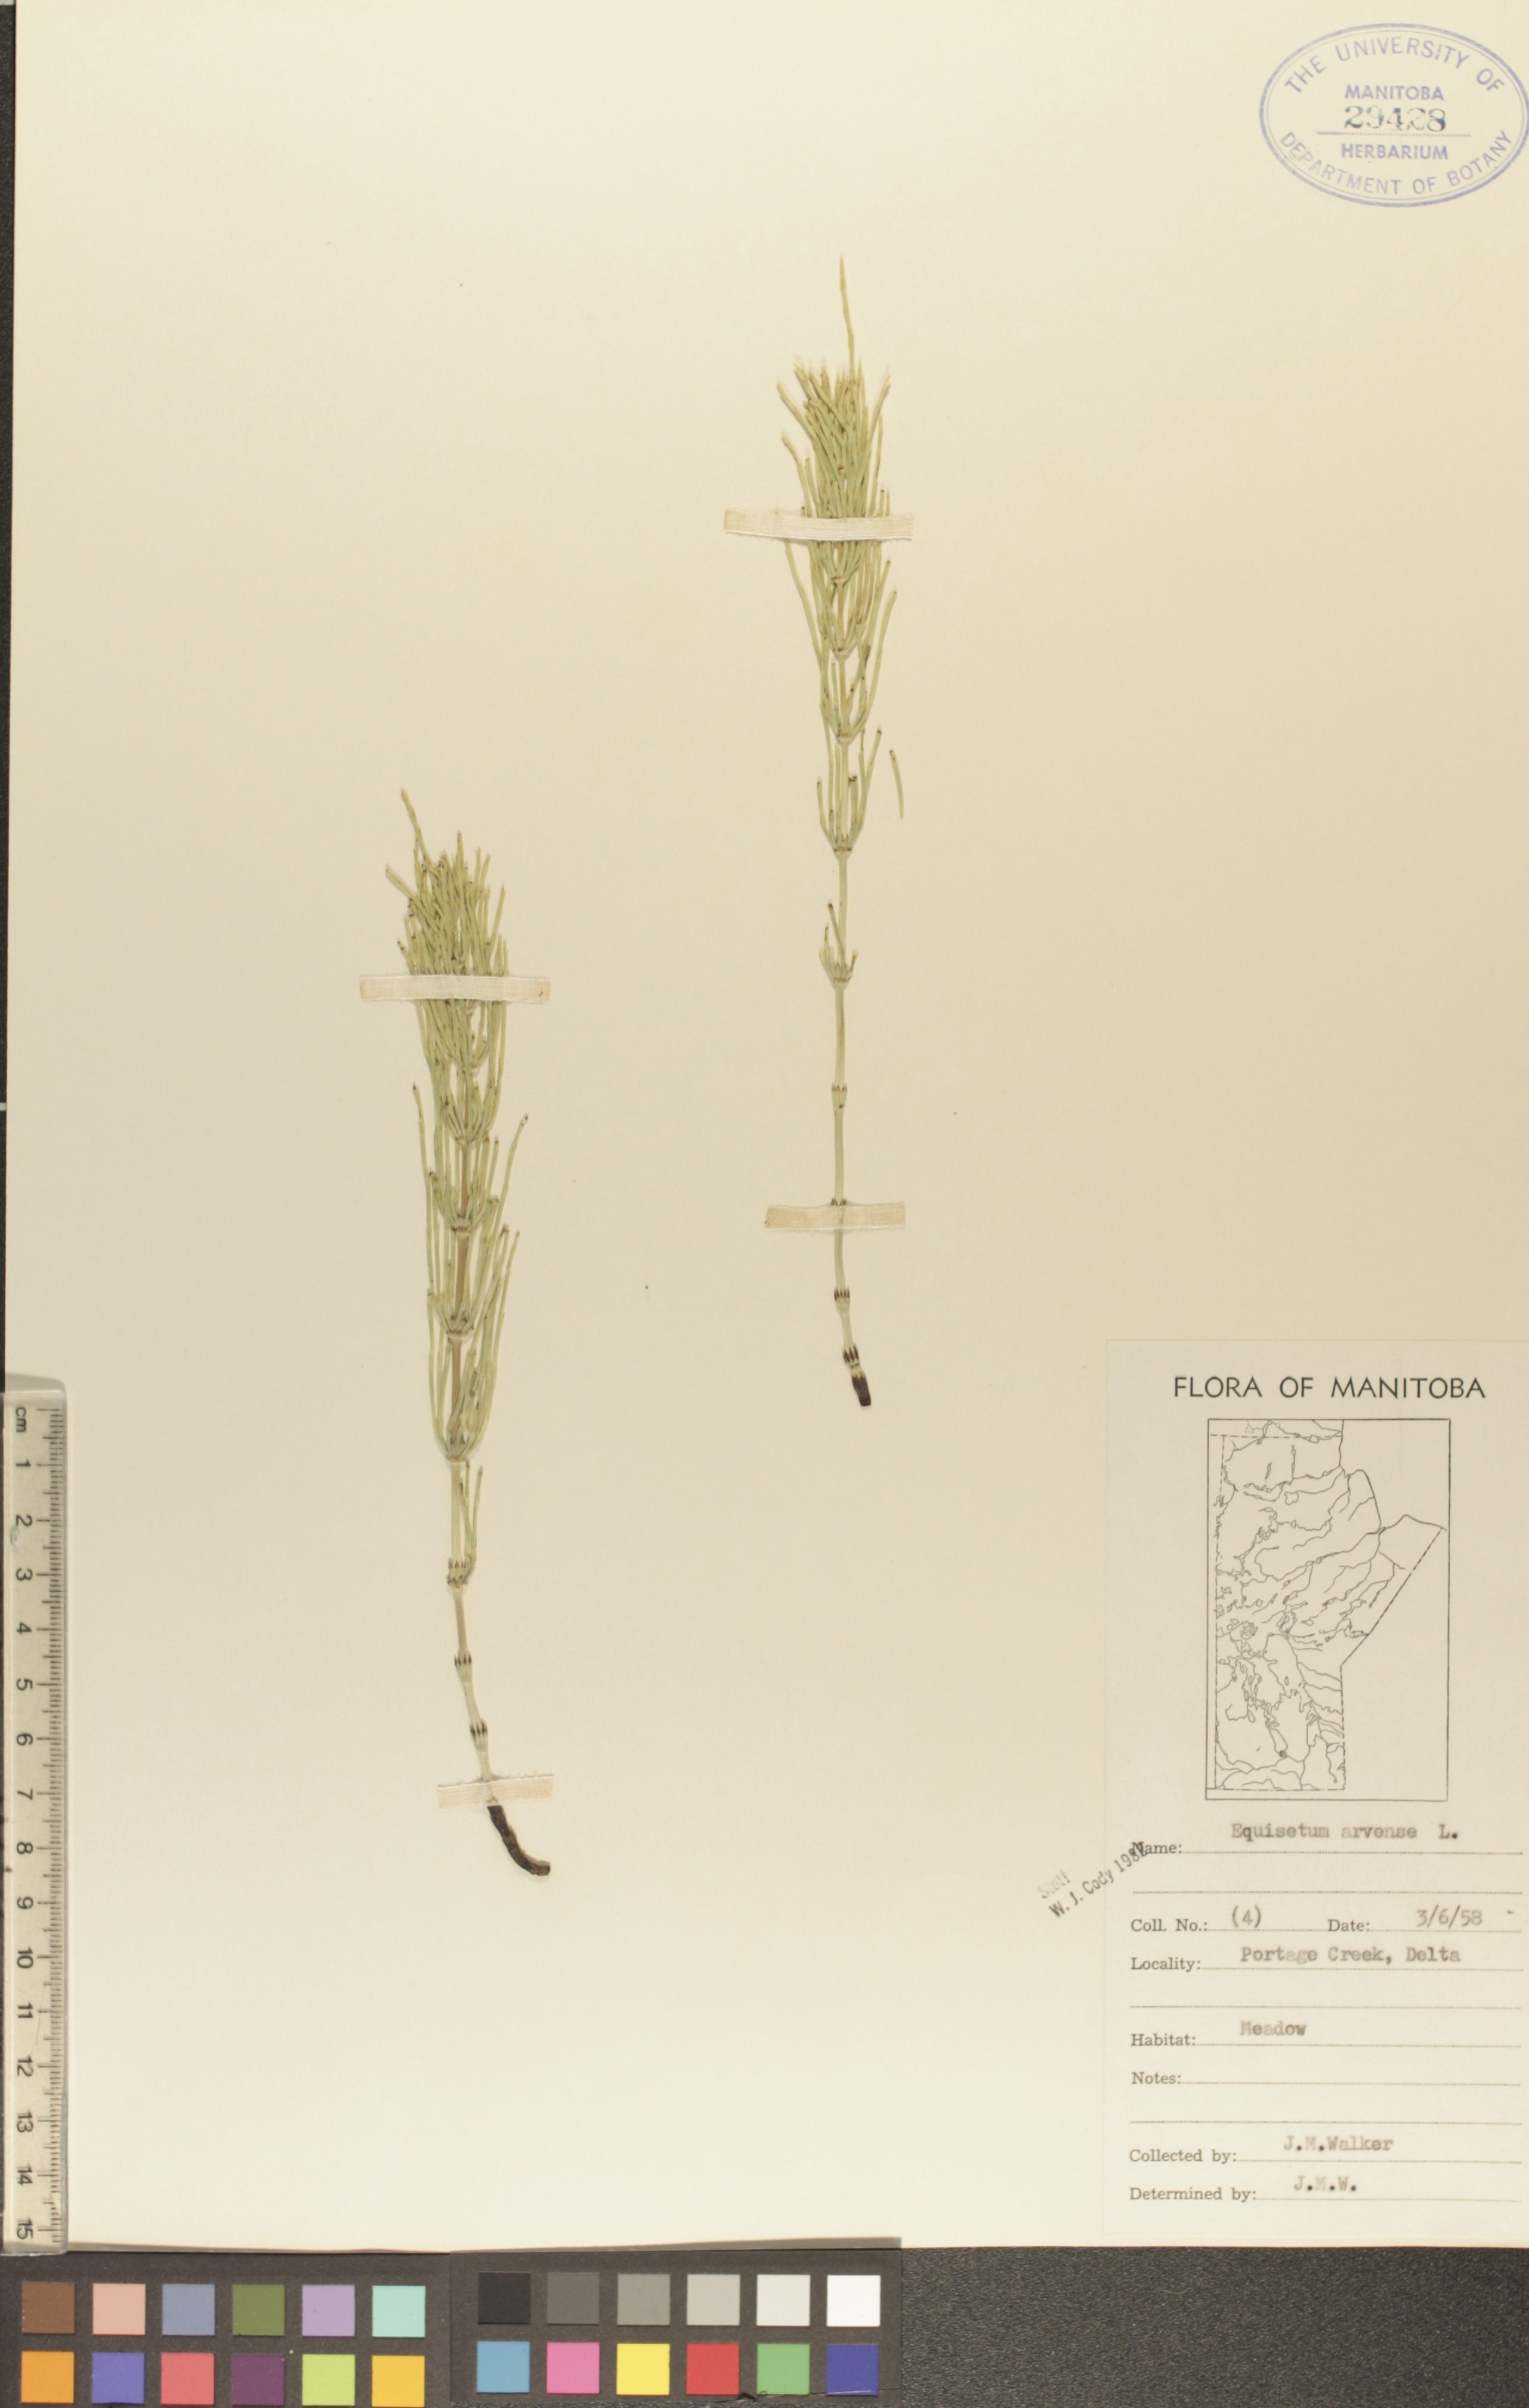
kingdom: Plantae
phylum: Tracheophyta
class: Polypodiopsida
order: Equisetales
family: Equisetaceae
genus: Equisetum
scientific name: Equisetum arvense
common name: Field horsetail
